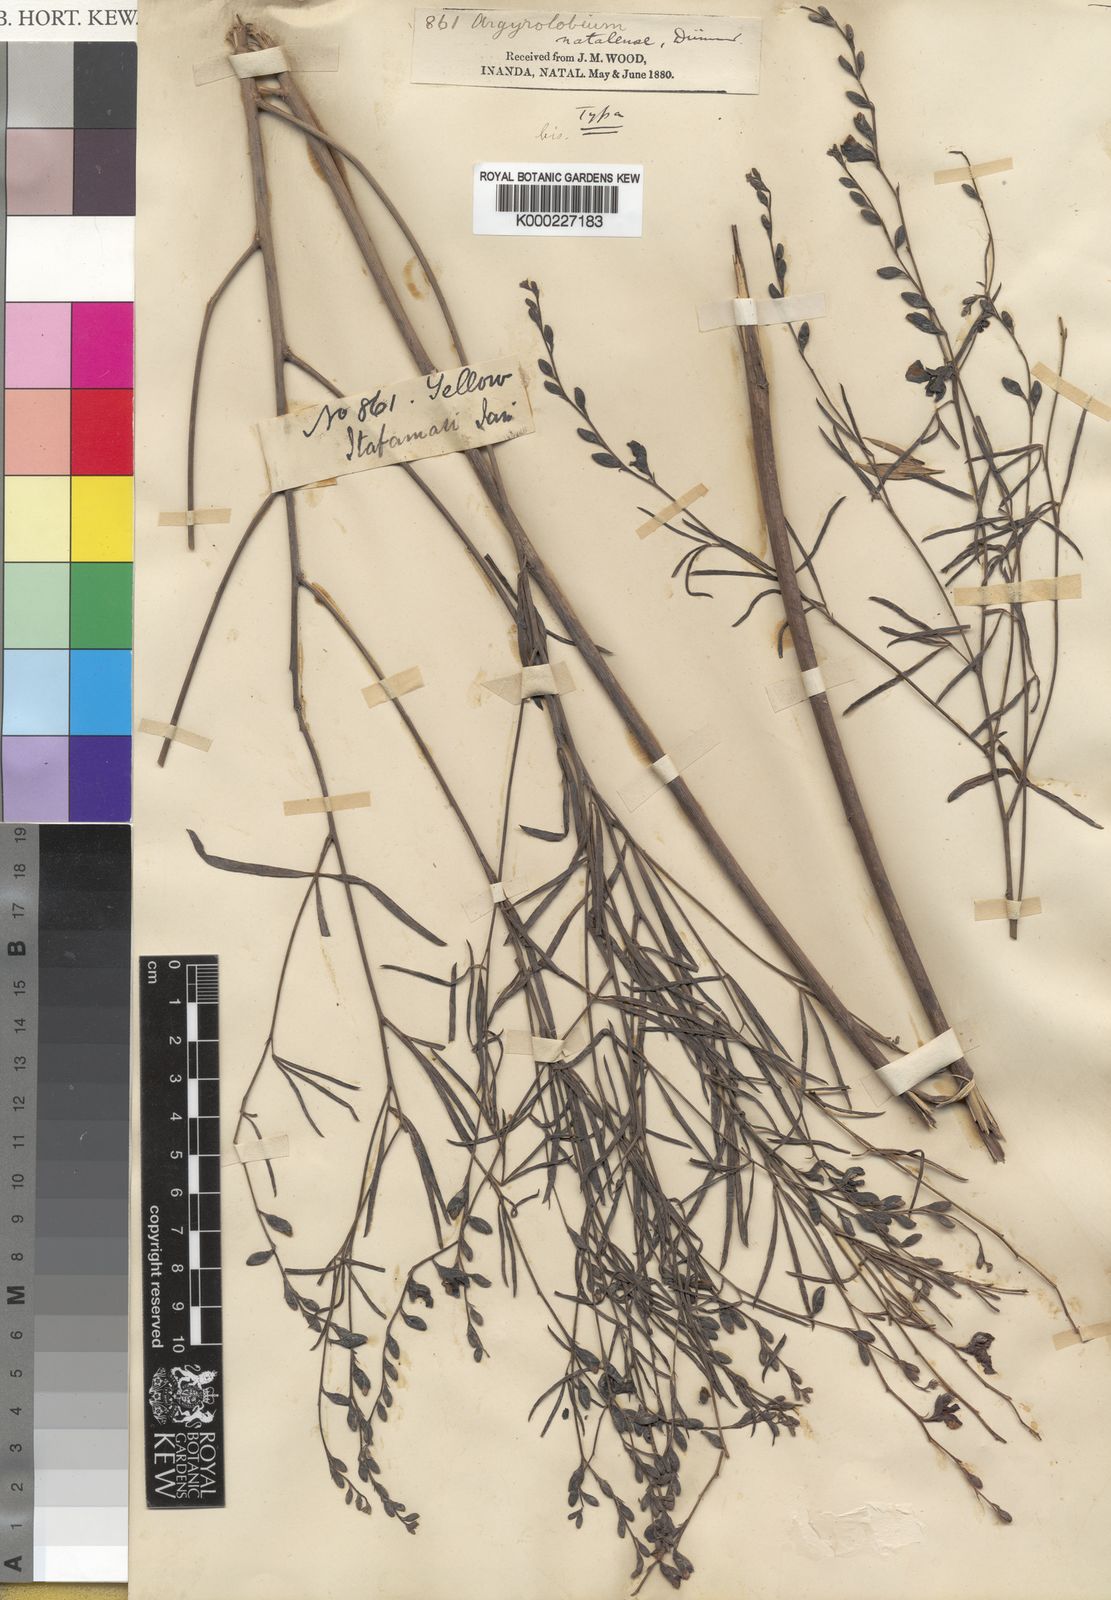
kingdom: Plantae
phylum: Tracheophyta
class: Magnoliopsida
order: Fabales
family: Fabaceae
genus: Argyrolobium
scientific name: Argyrolobium longifolium
